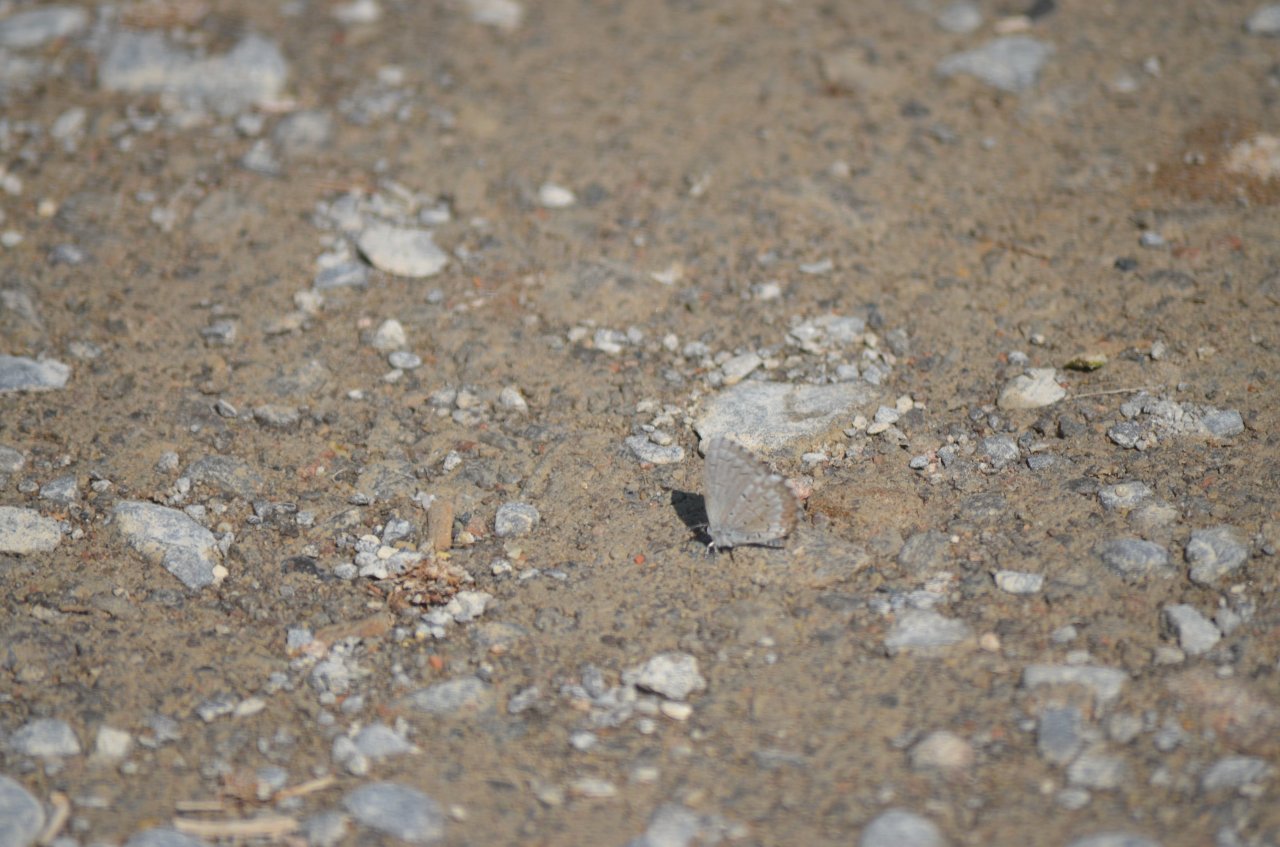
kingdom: Animalia
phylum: Arthropoda
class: Insecta
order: Lepidoptera
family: Lycaenidae
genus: Celastrina
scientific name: Celastrina
